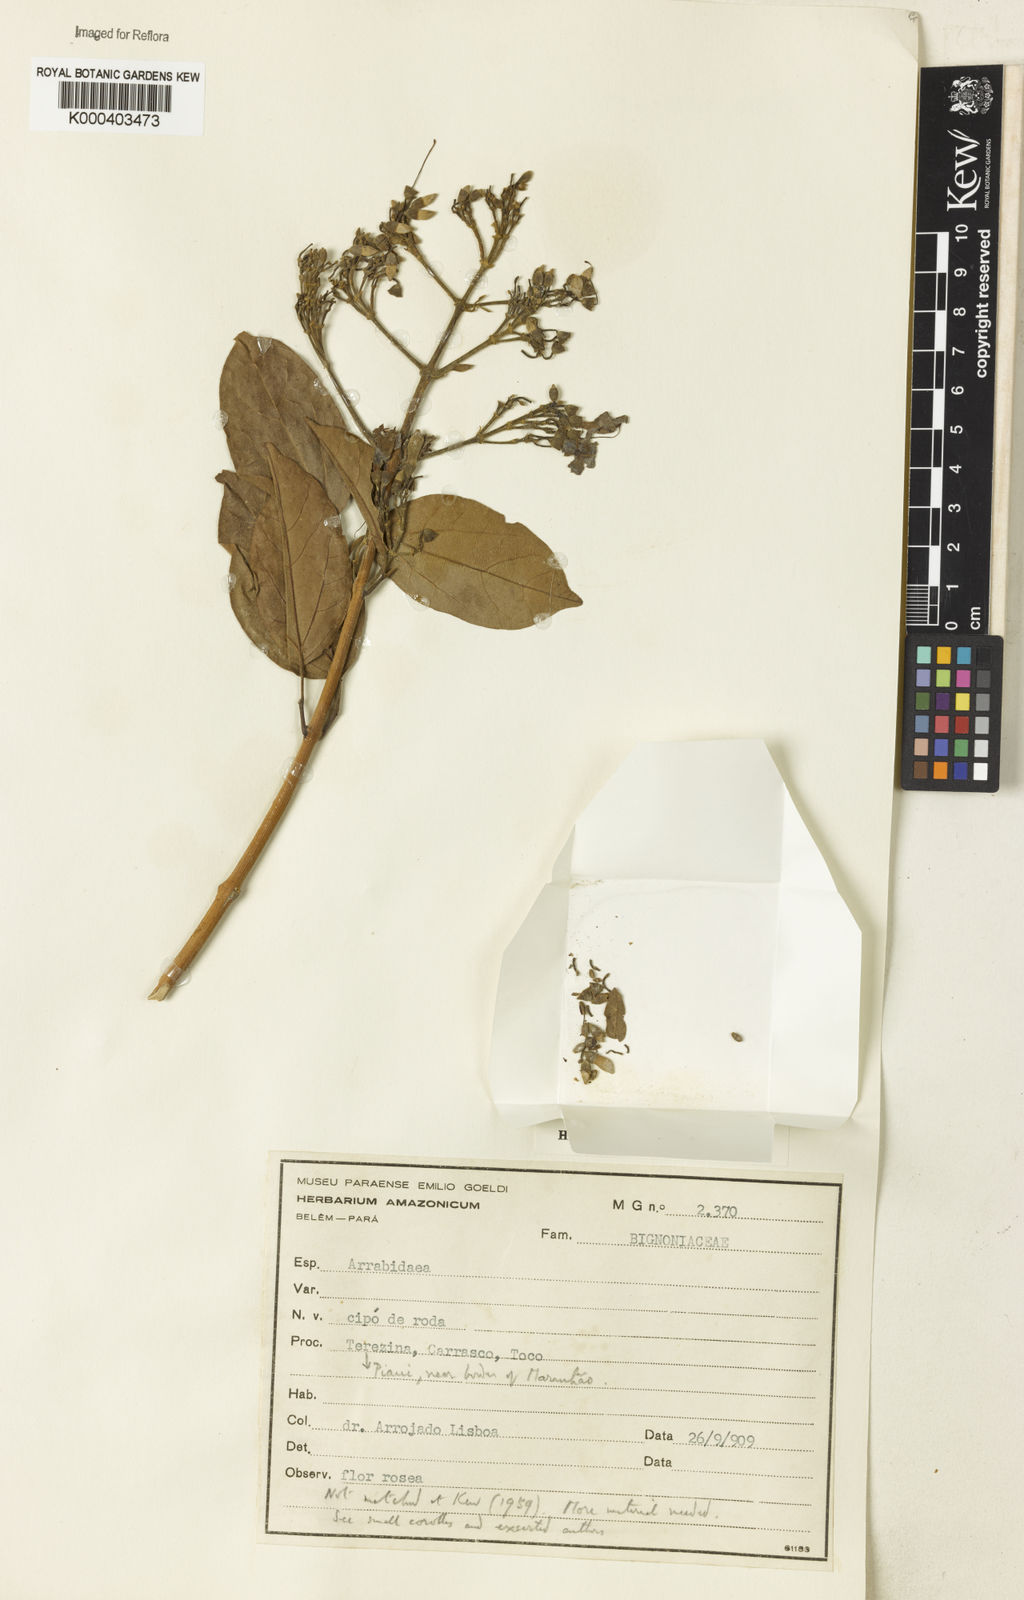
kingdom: Plantae
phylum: Tracheophyta
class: Magnoliopsida
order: Rosales
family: Rhamnaceae
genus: Arrabidaea
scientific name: Arrabidaea
